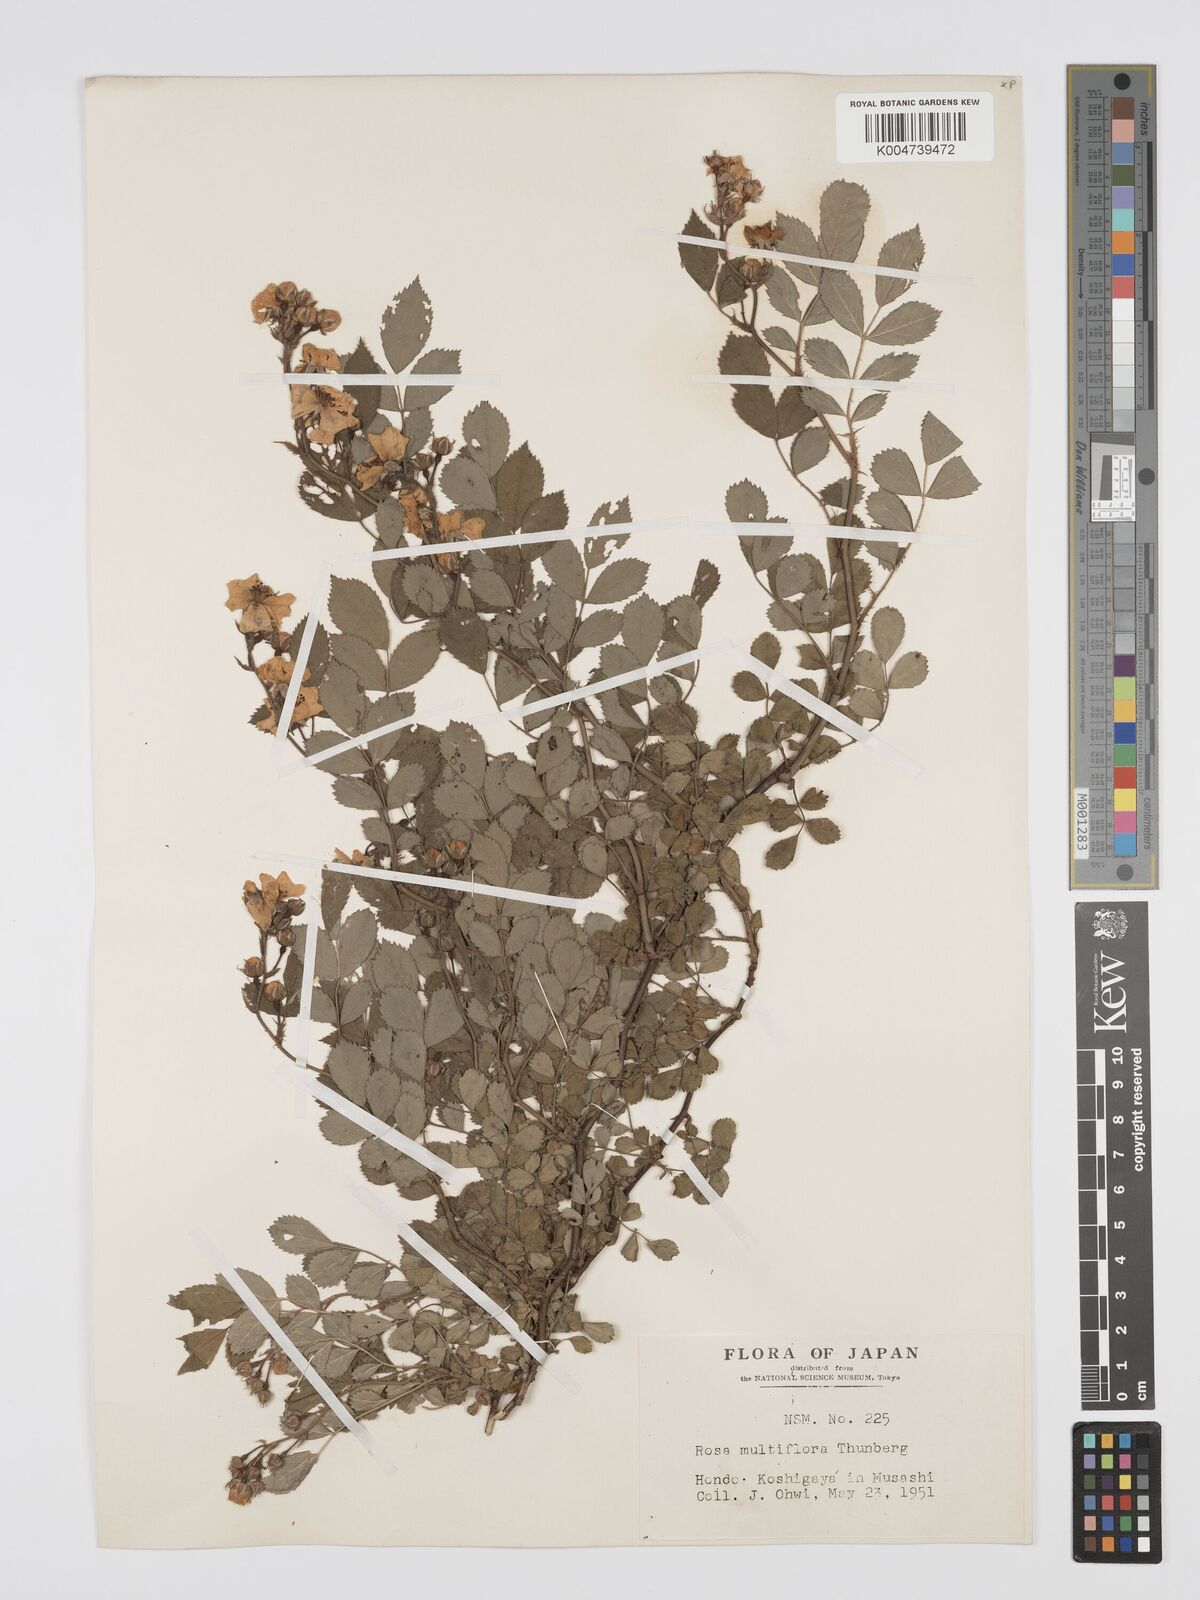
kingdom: Plantae
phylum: Tracheophyta
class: Magnoliopsida
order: Rosales
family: Rosaceae
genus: Rosa
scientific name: Rosa
